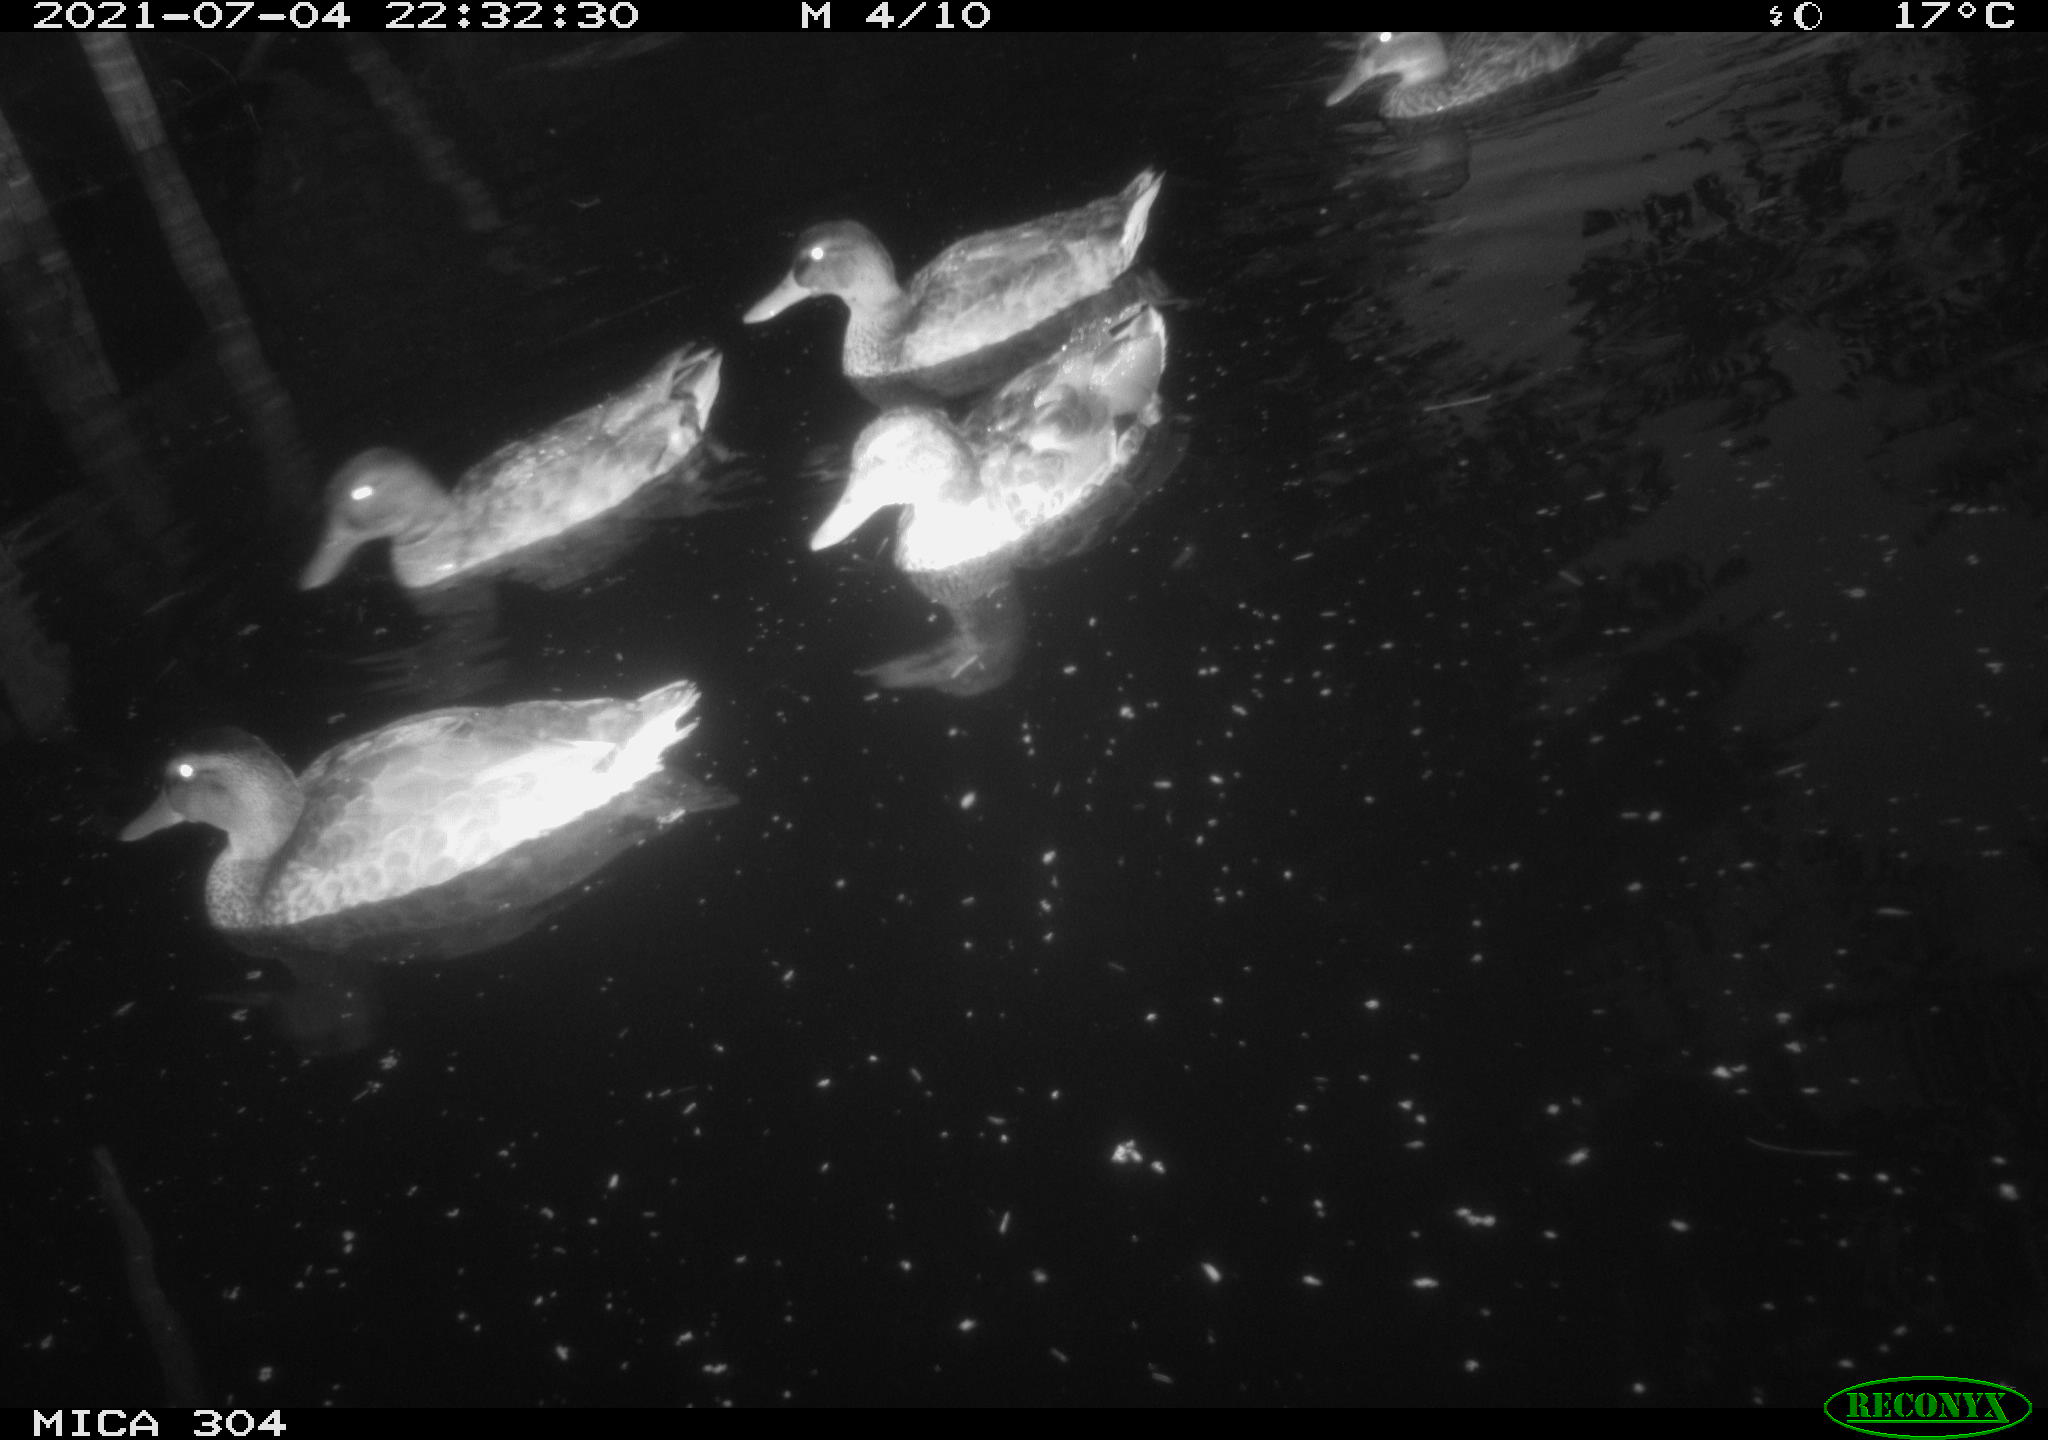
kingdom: Animalia
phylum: Chordata
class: Aves
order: Anseriformes
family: Anatidae
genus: Mareca
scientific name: Mareca strepera
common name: Gadwall
